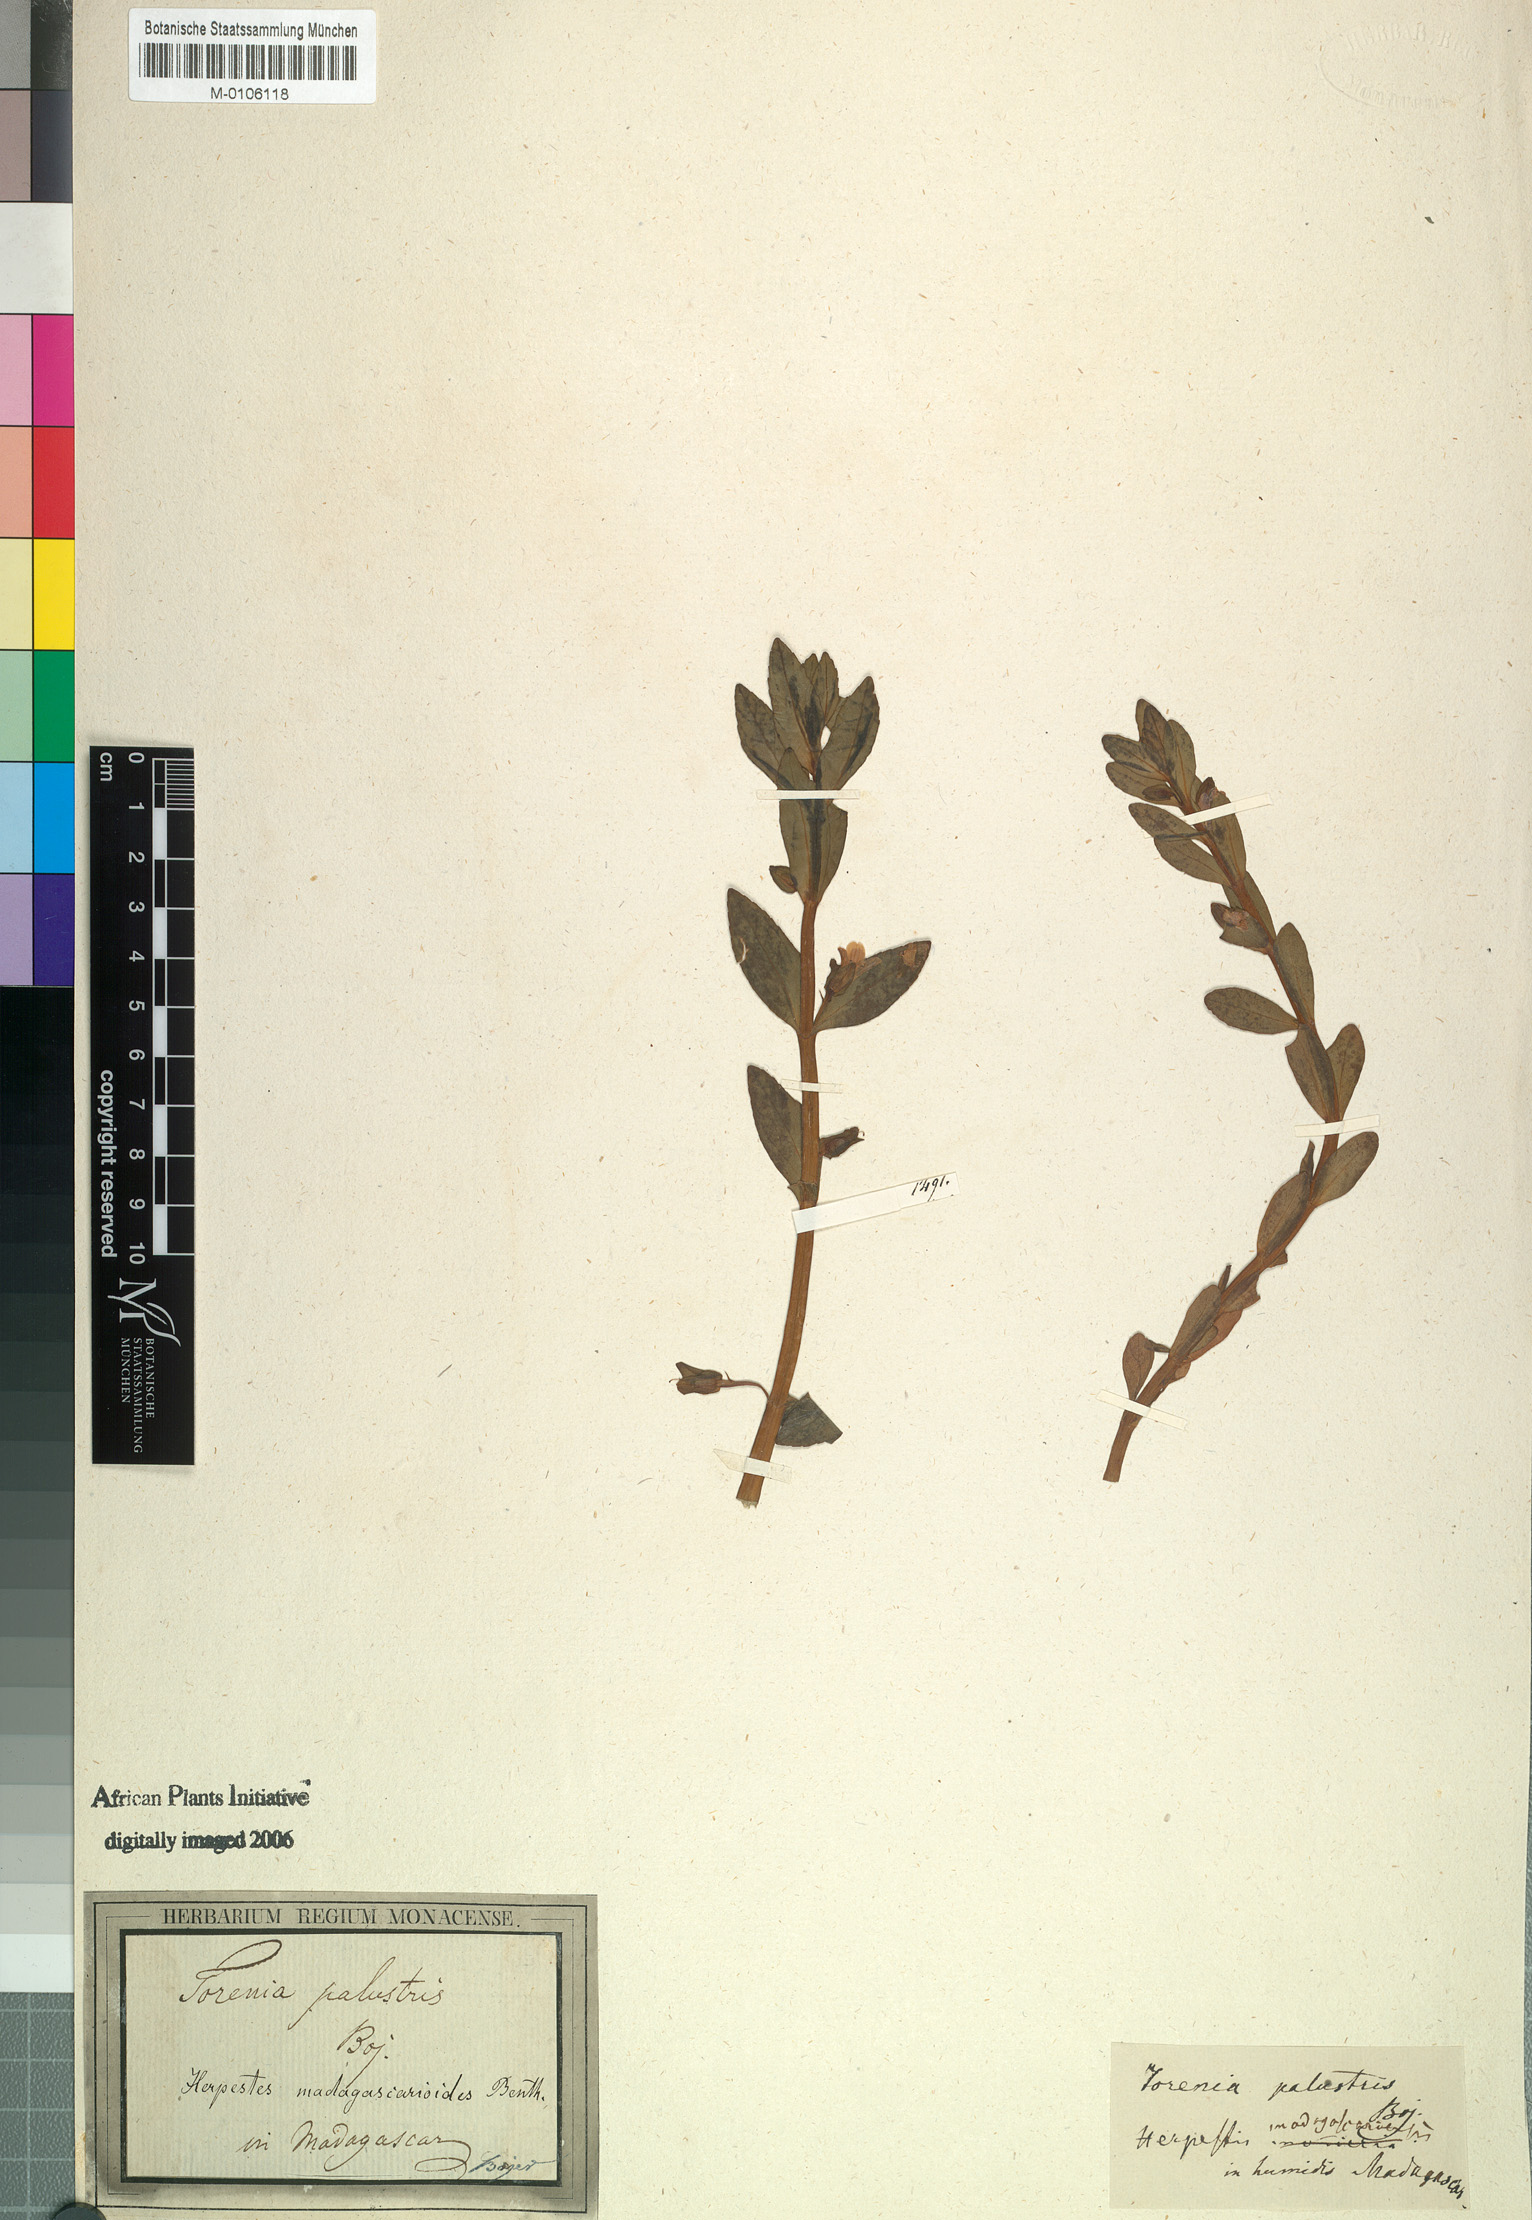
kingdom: Plantae
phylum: Tracheophyta
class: Magnoliopsida
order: Lamiales
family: Plantaginaceae
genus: Bacopa
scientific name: Bacopa madagascariensis
